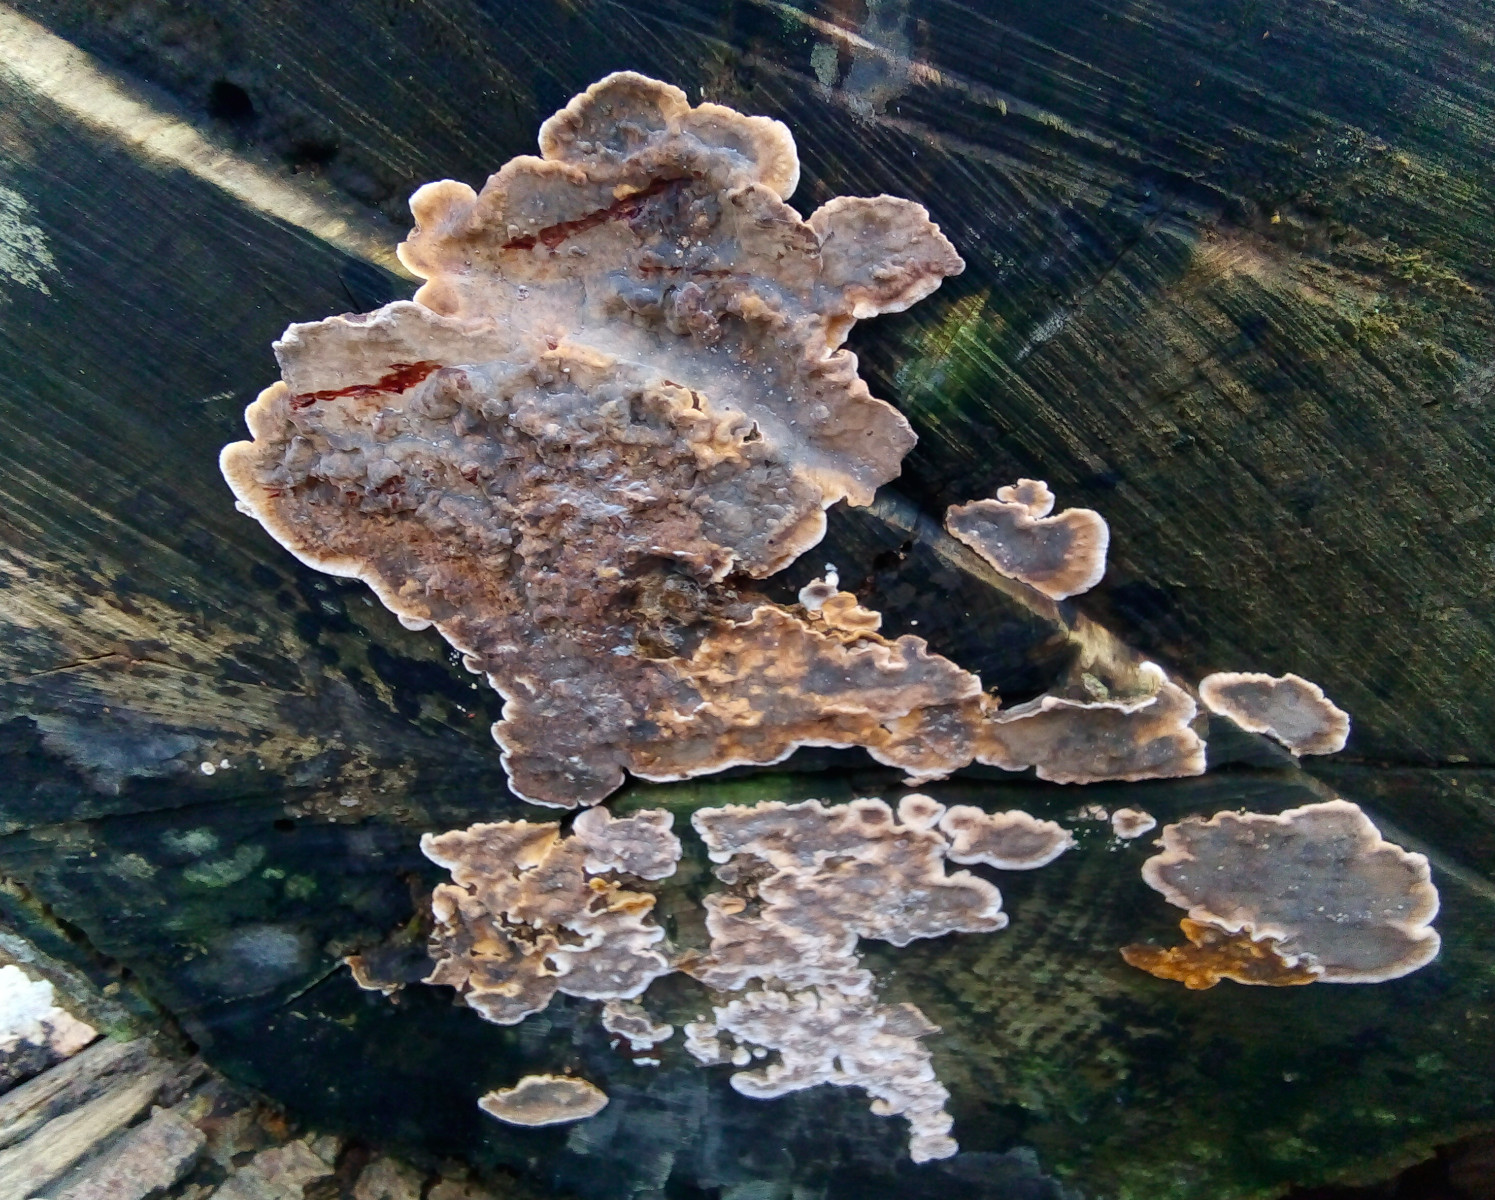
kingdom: Fungi
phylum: Basidiomycota
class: Agaricomycetes
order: Russulales
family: Stereaceae
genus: Stereum
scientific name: Stereum rugosum
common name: rynket lædersvamp
